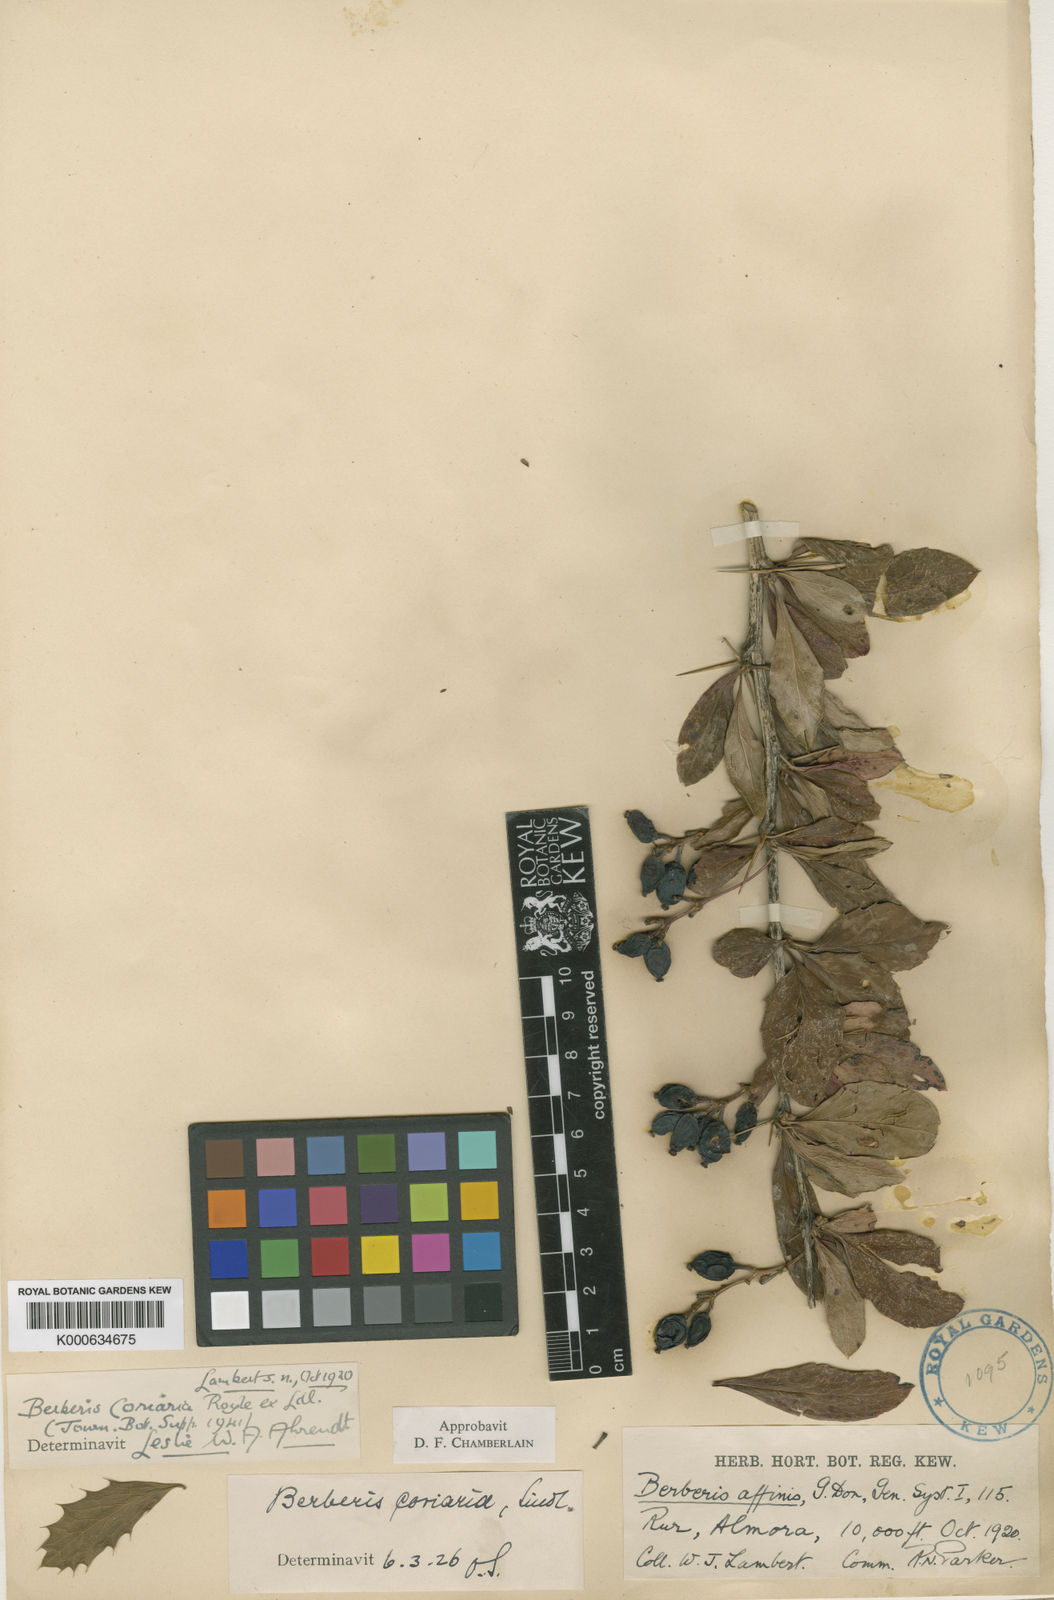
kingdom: Plantae
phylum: Tracheophyta
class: Magnoliopsida
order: Ranunculales
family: Berberidaceae
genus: Berberis
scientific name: Berberis coriaria
